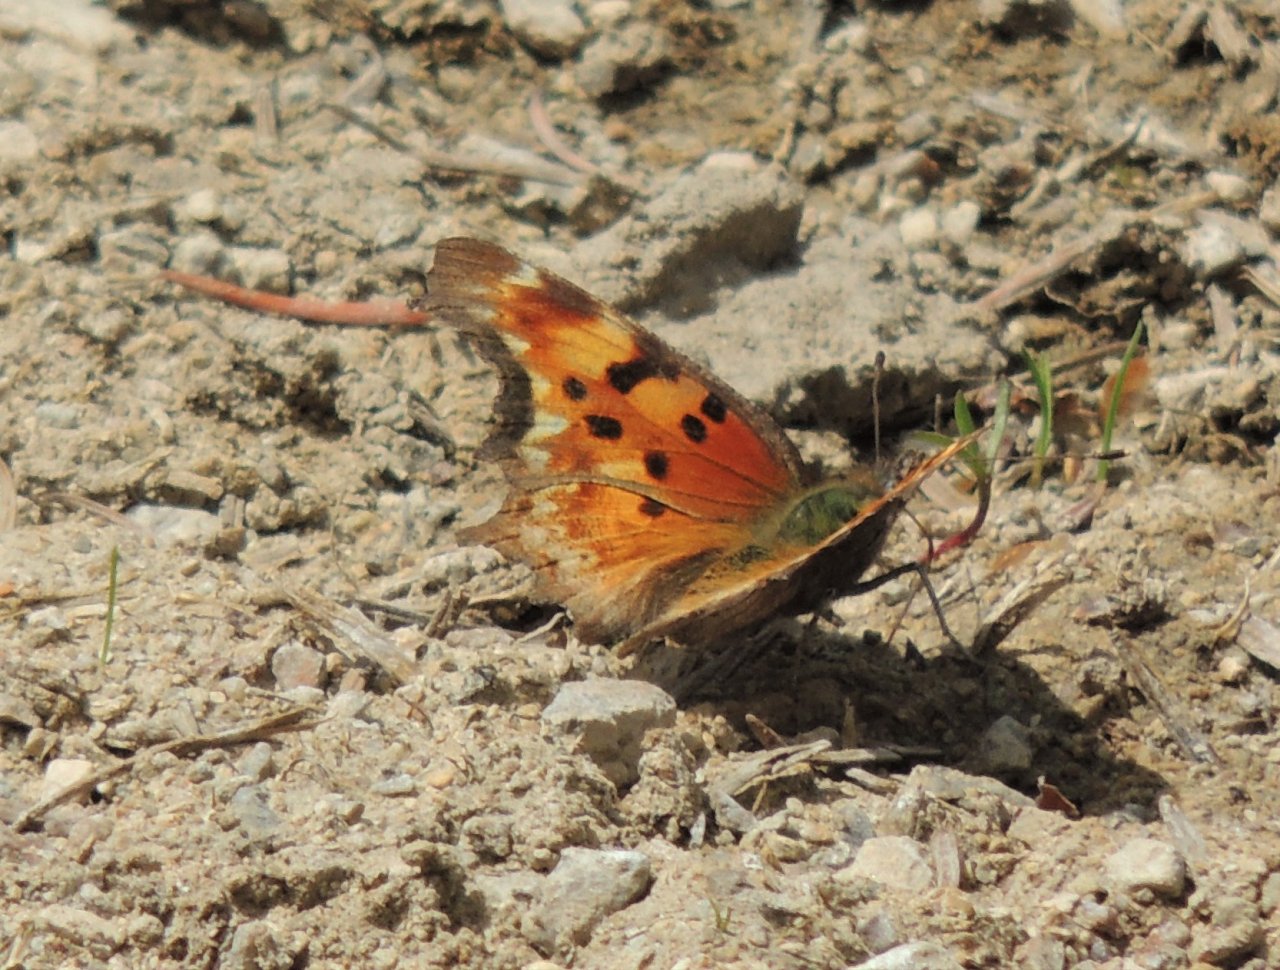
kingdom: Animalia
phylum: Arthropoda
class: Insecta
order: Lepidoptera
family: Nymphalidae
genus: Polygonia
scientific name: Polygonia gracilis
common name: Hoary Comma
